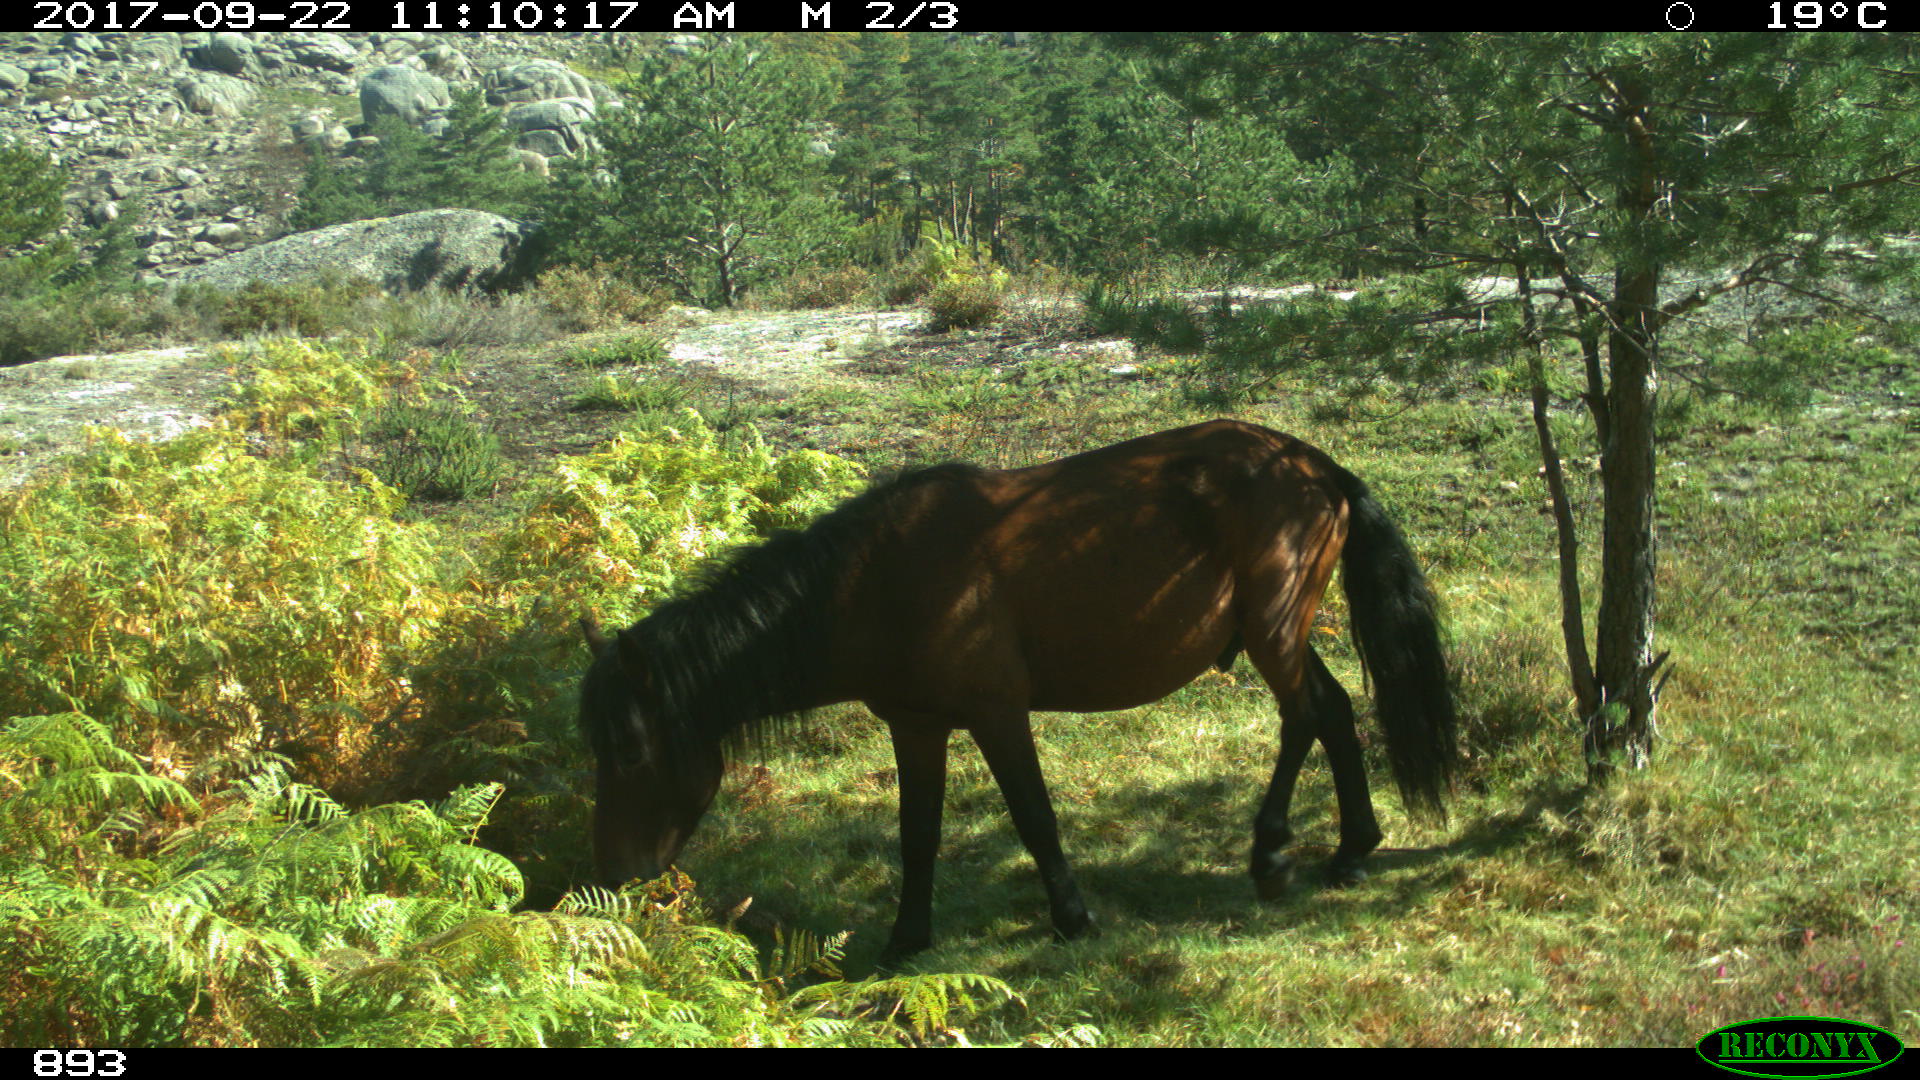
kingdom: Animalia
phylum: Chordata
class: Mammalia
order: Perissodactyla
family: Equidae
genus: Equus
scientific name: Equus caballus
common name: Horse
